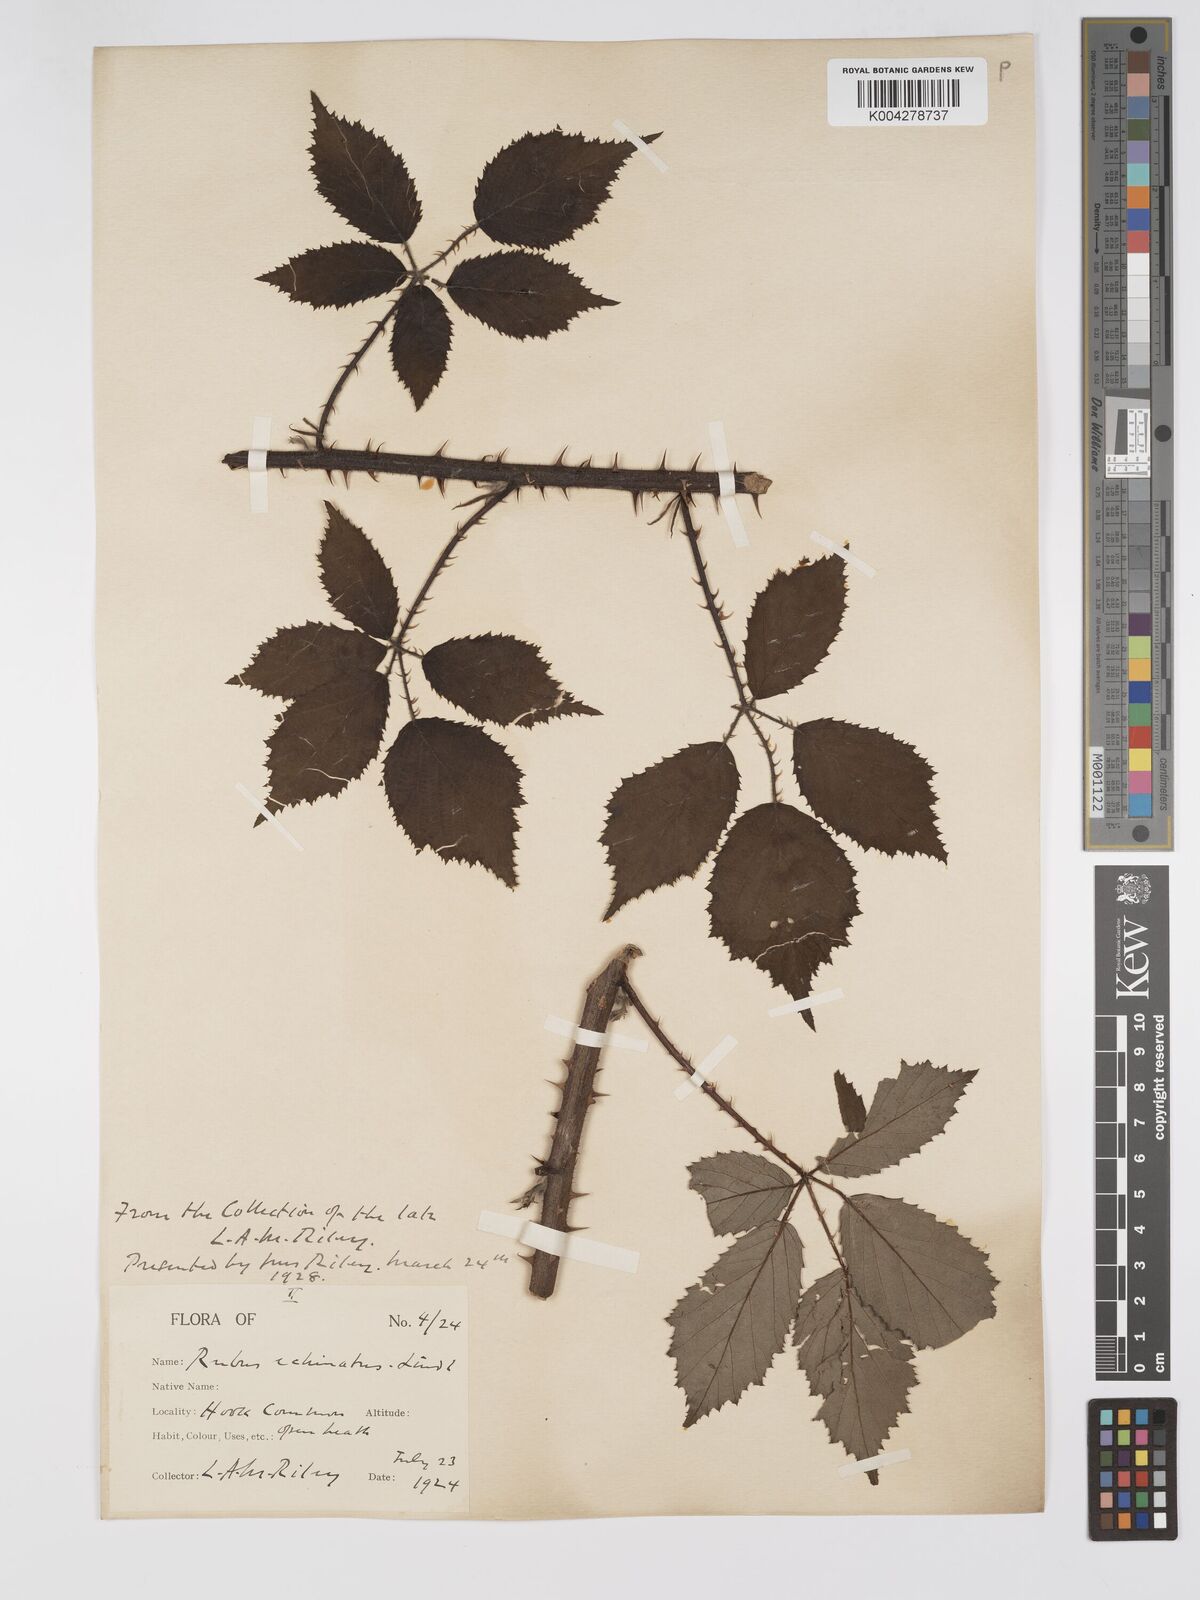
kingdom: Plantae
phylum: Tracheophyta
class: Magnoliopsida
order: Rosales
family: Rosaceae
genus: Rubus
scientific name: Rubus echinatus
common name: Echinate bramble
